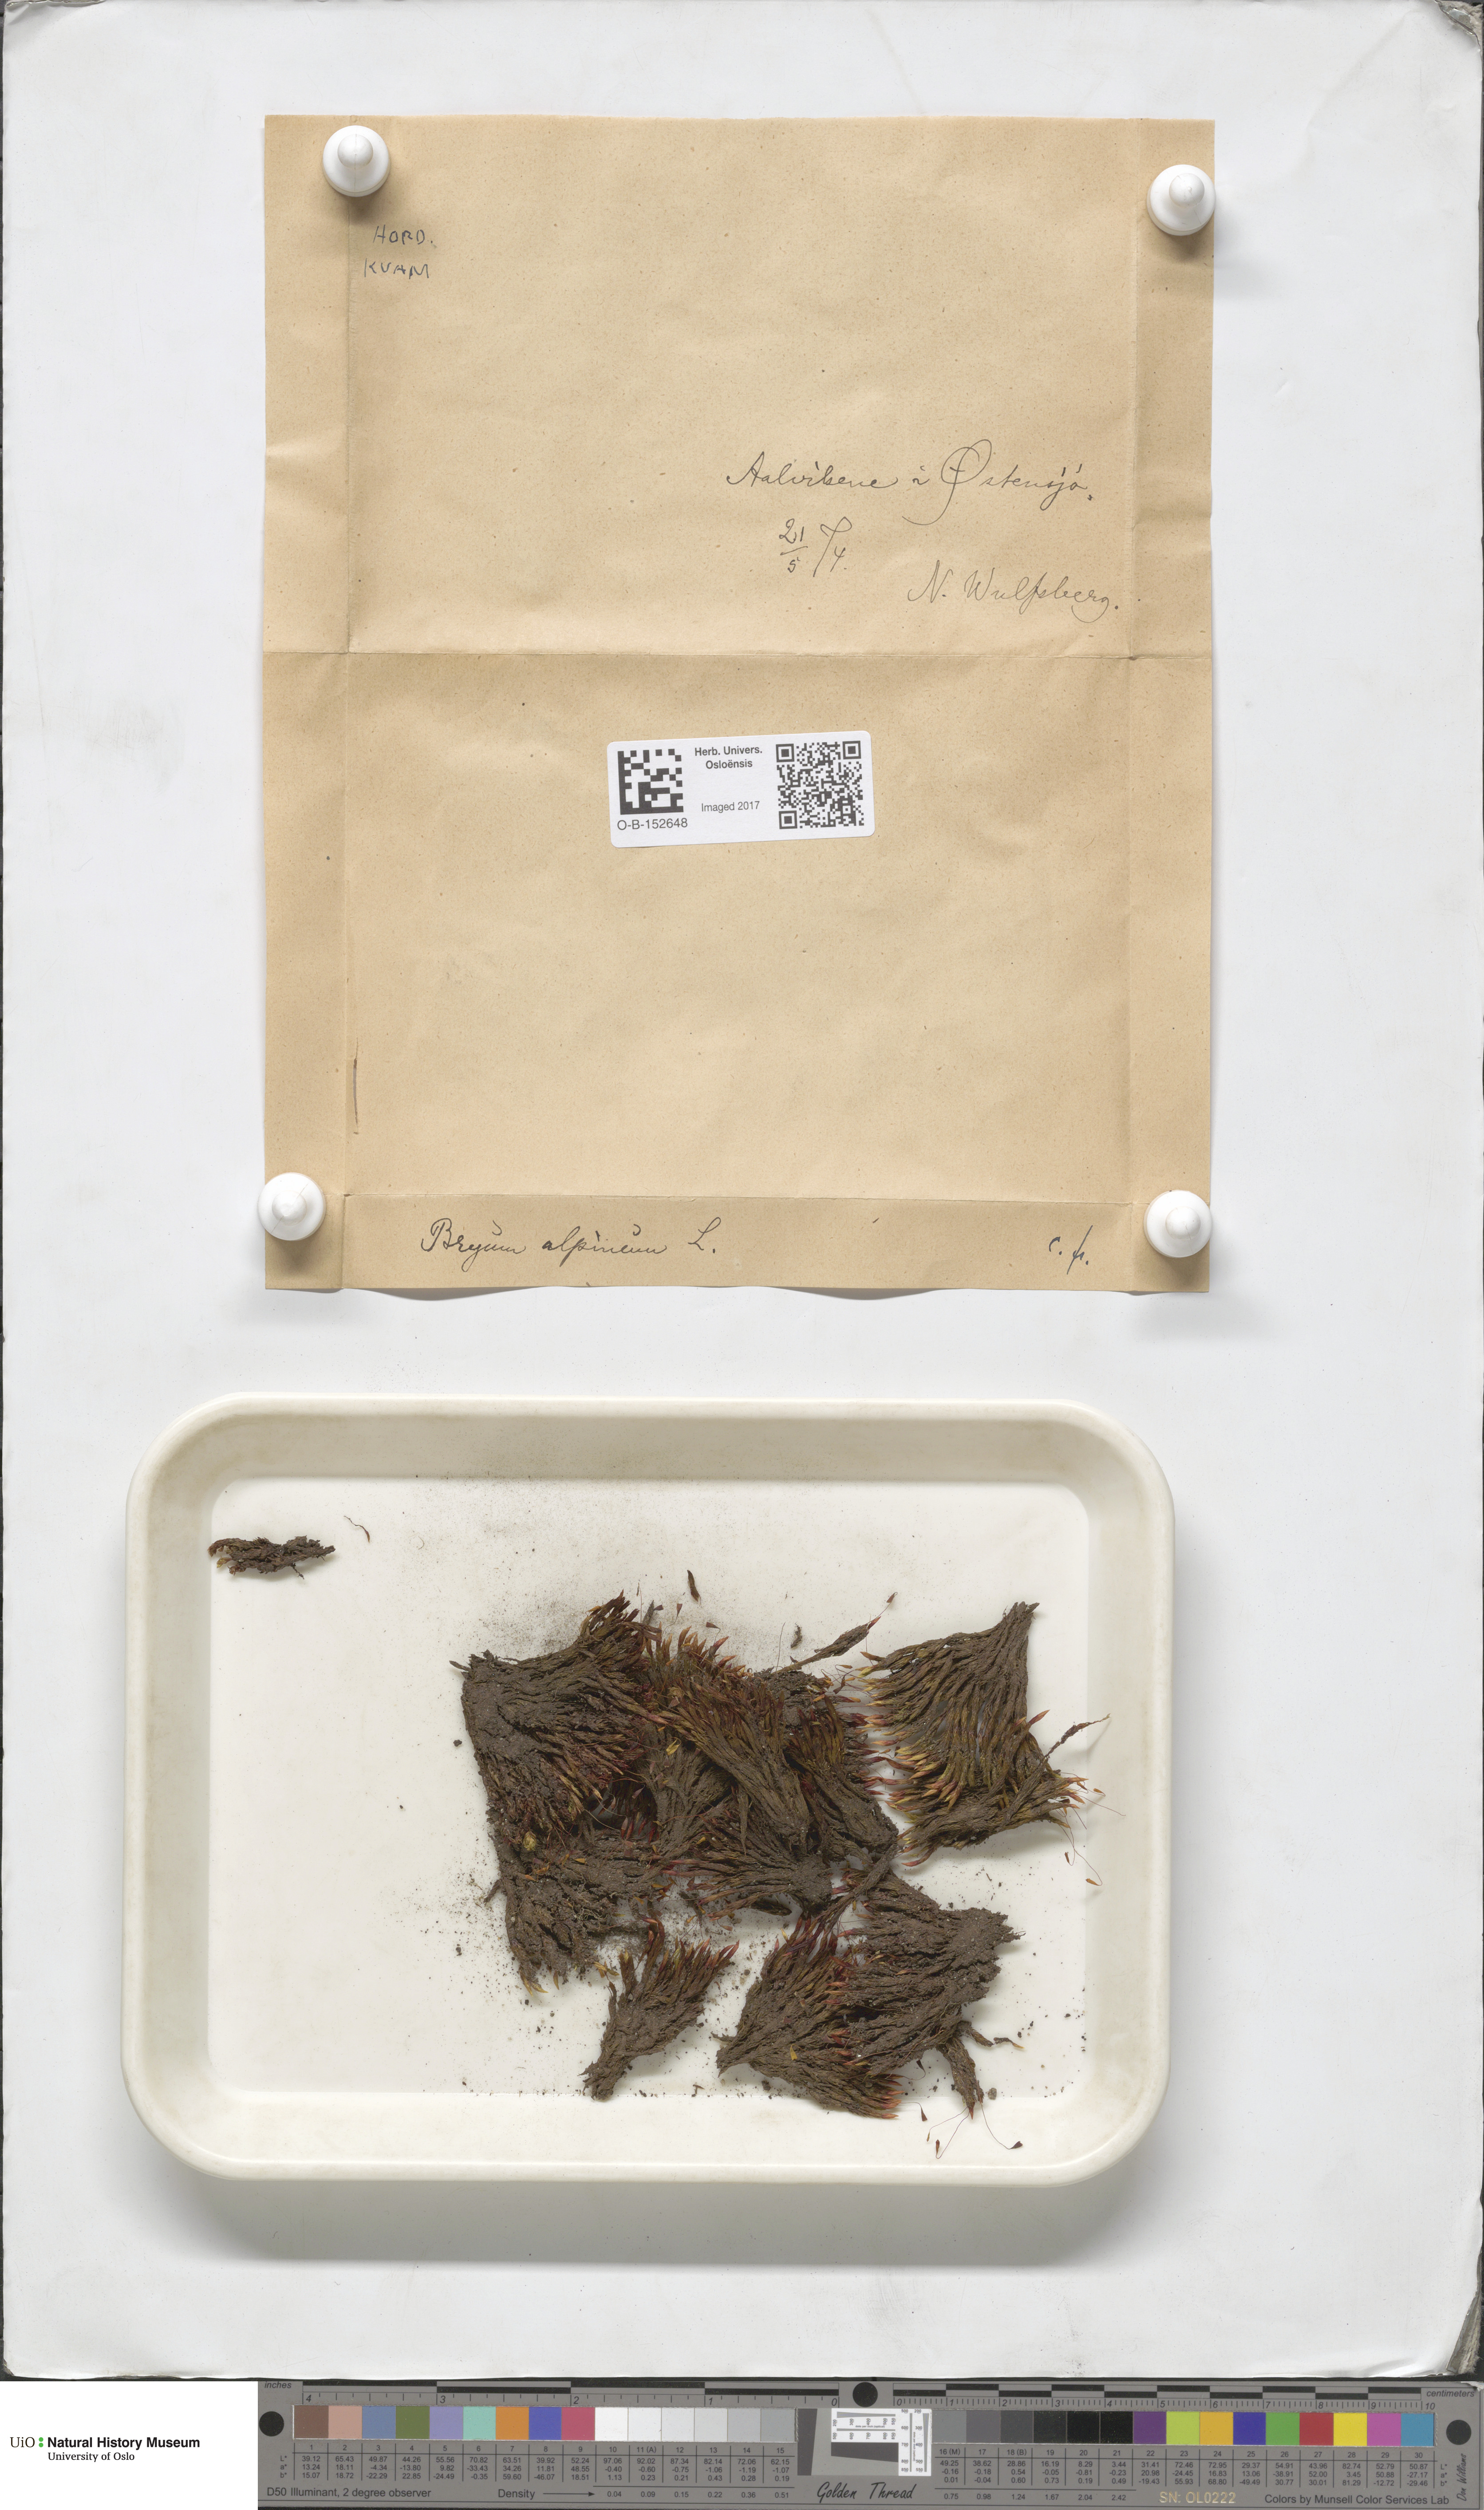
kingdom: Plantae
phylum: Bryophyta
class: Bryopsida
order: Bryales
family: Bryaceae
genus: Imbribryum
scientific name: Imbribryum alpinum
